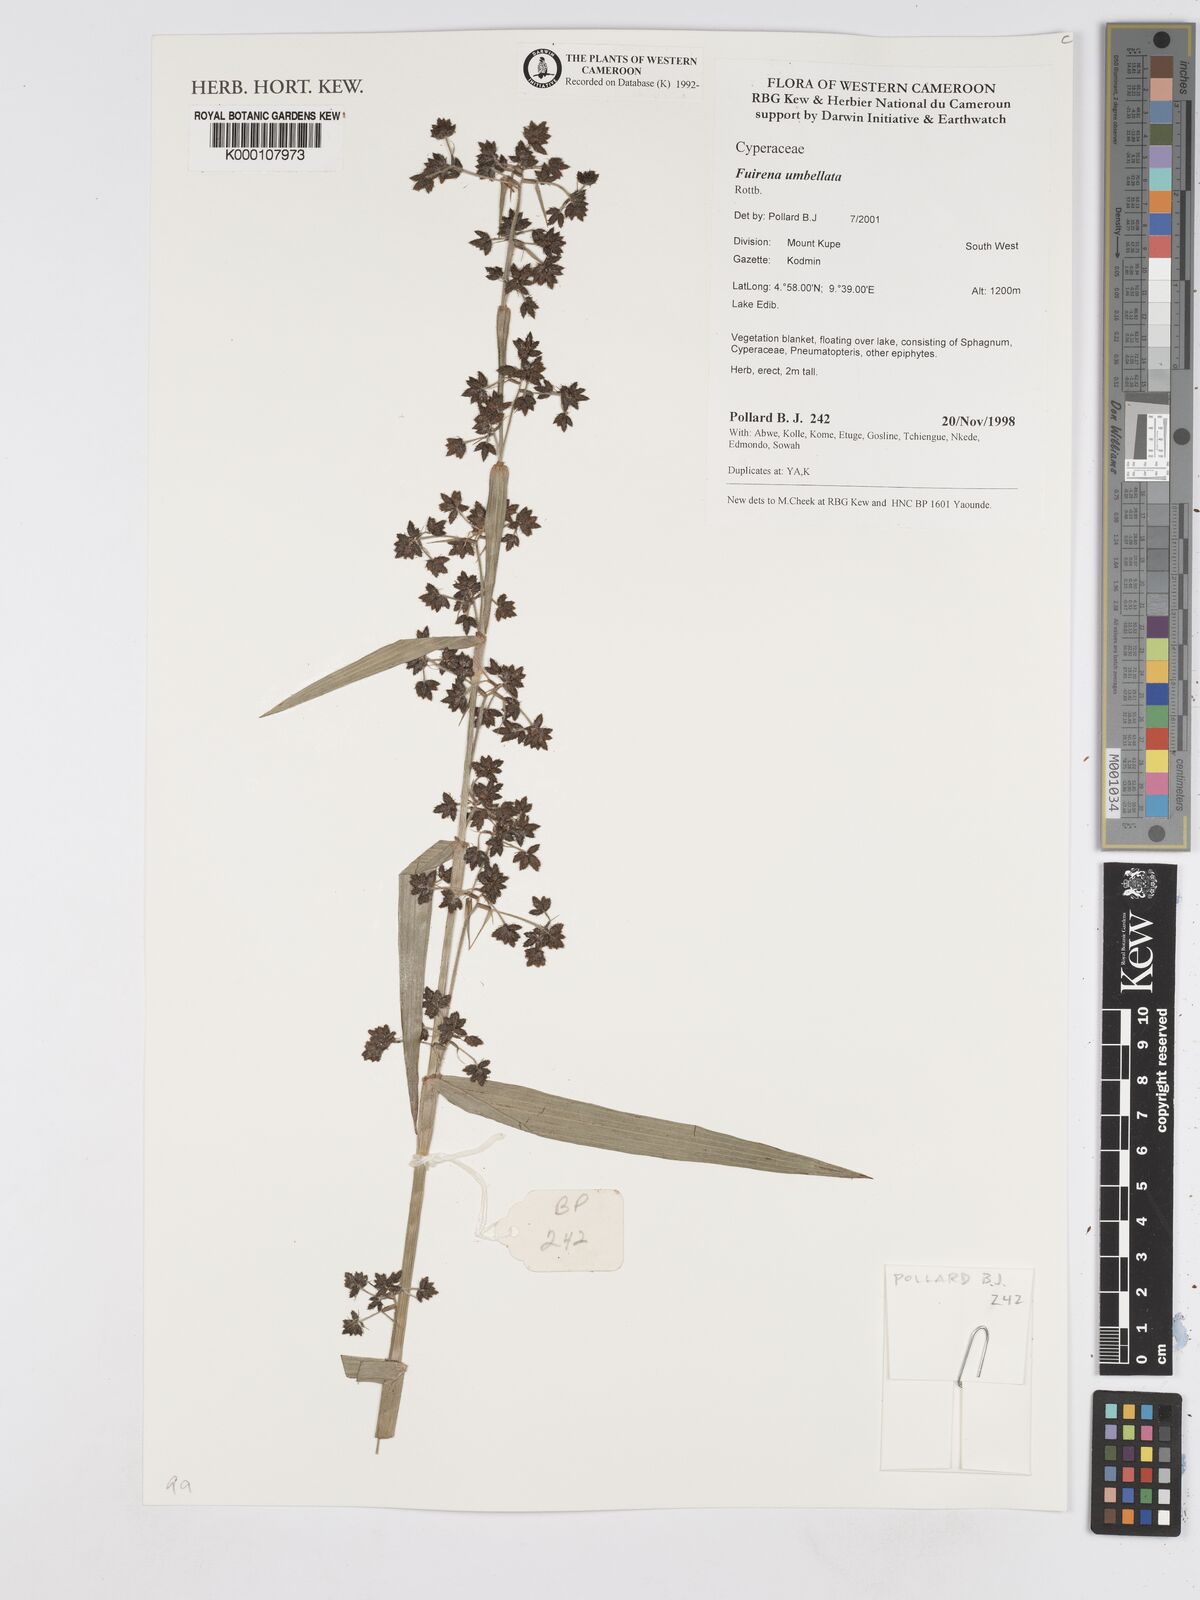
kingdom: Plantae
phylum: Tracheophyta
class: Liliopsida
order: Poales
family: Cyperaceae
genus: Fuirena
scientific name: Fuirena umbellata
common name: Yefen
